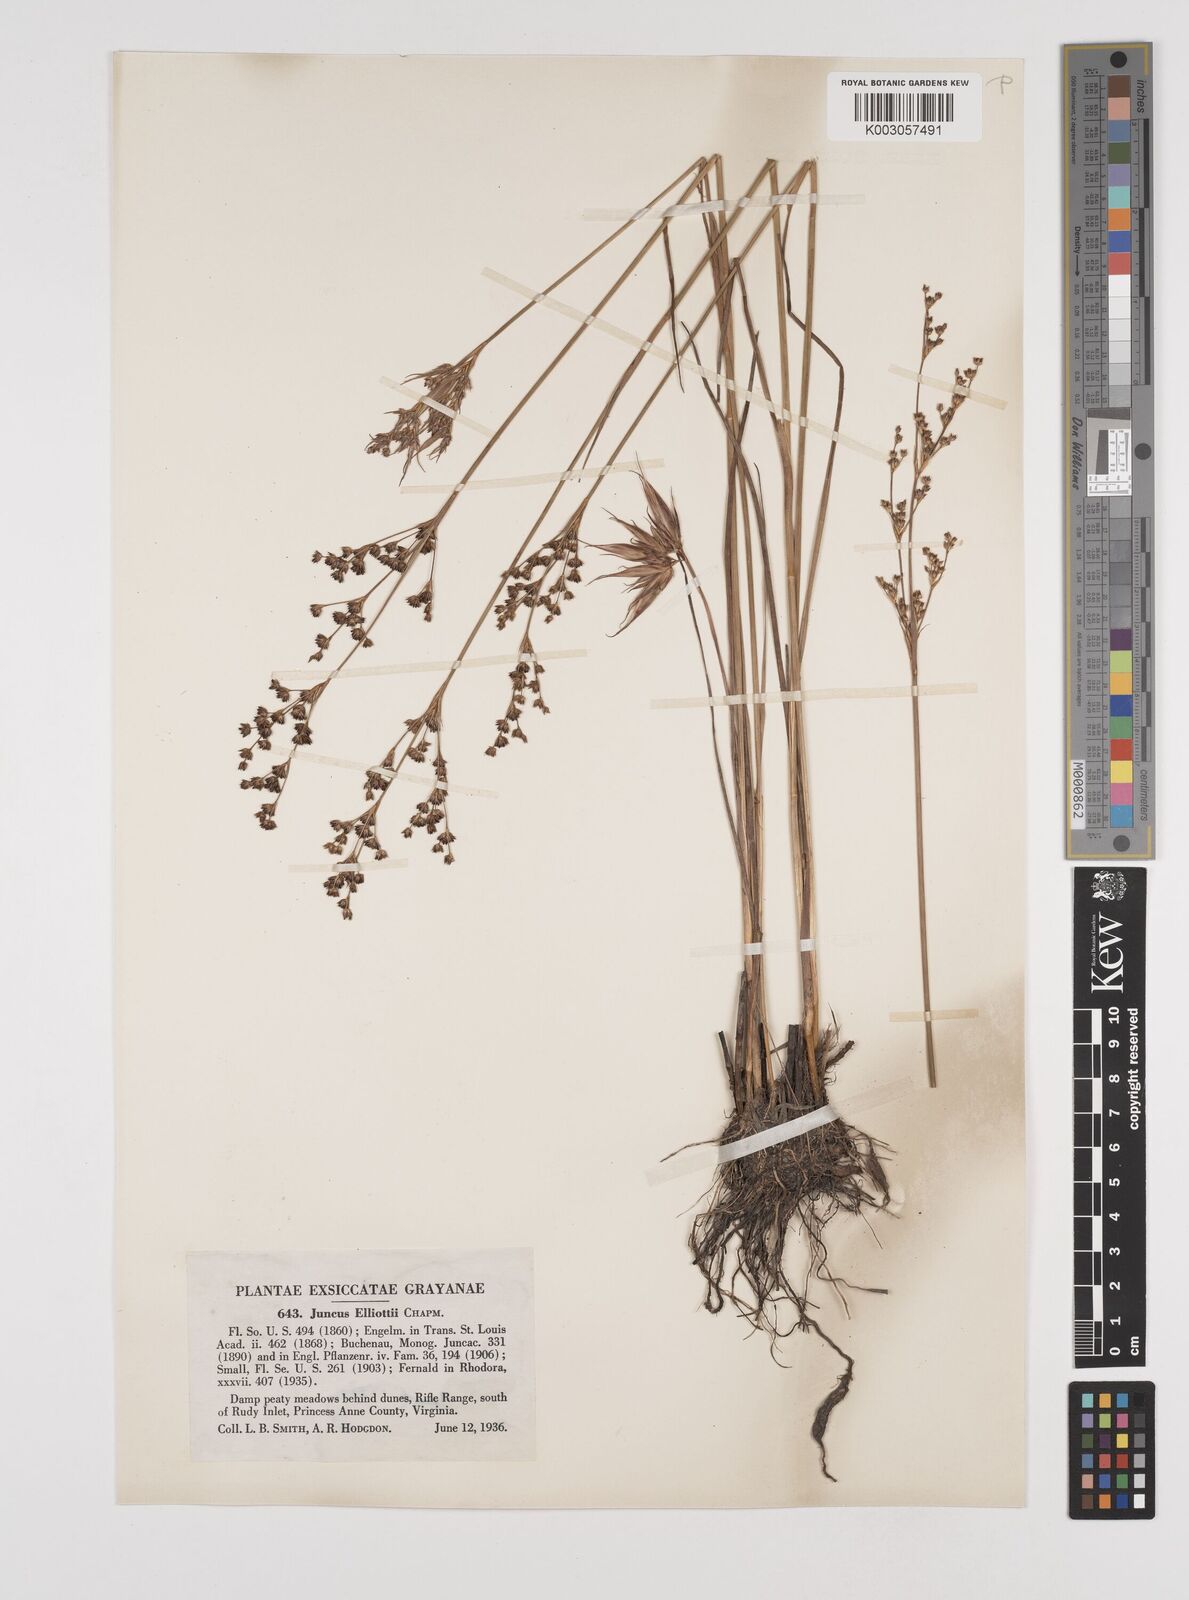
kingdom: Plantae
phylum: Tracheophyta
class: Liliopsida
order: Poales
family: Juncaceae
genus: Juncus
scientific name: Juncus elliottii
